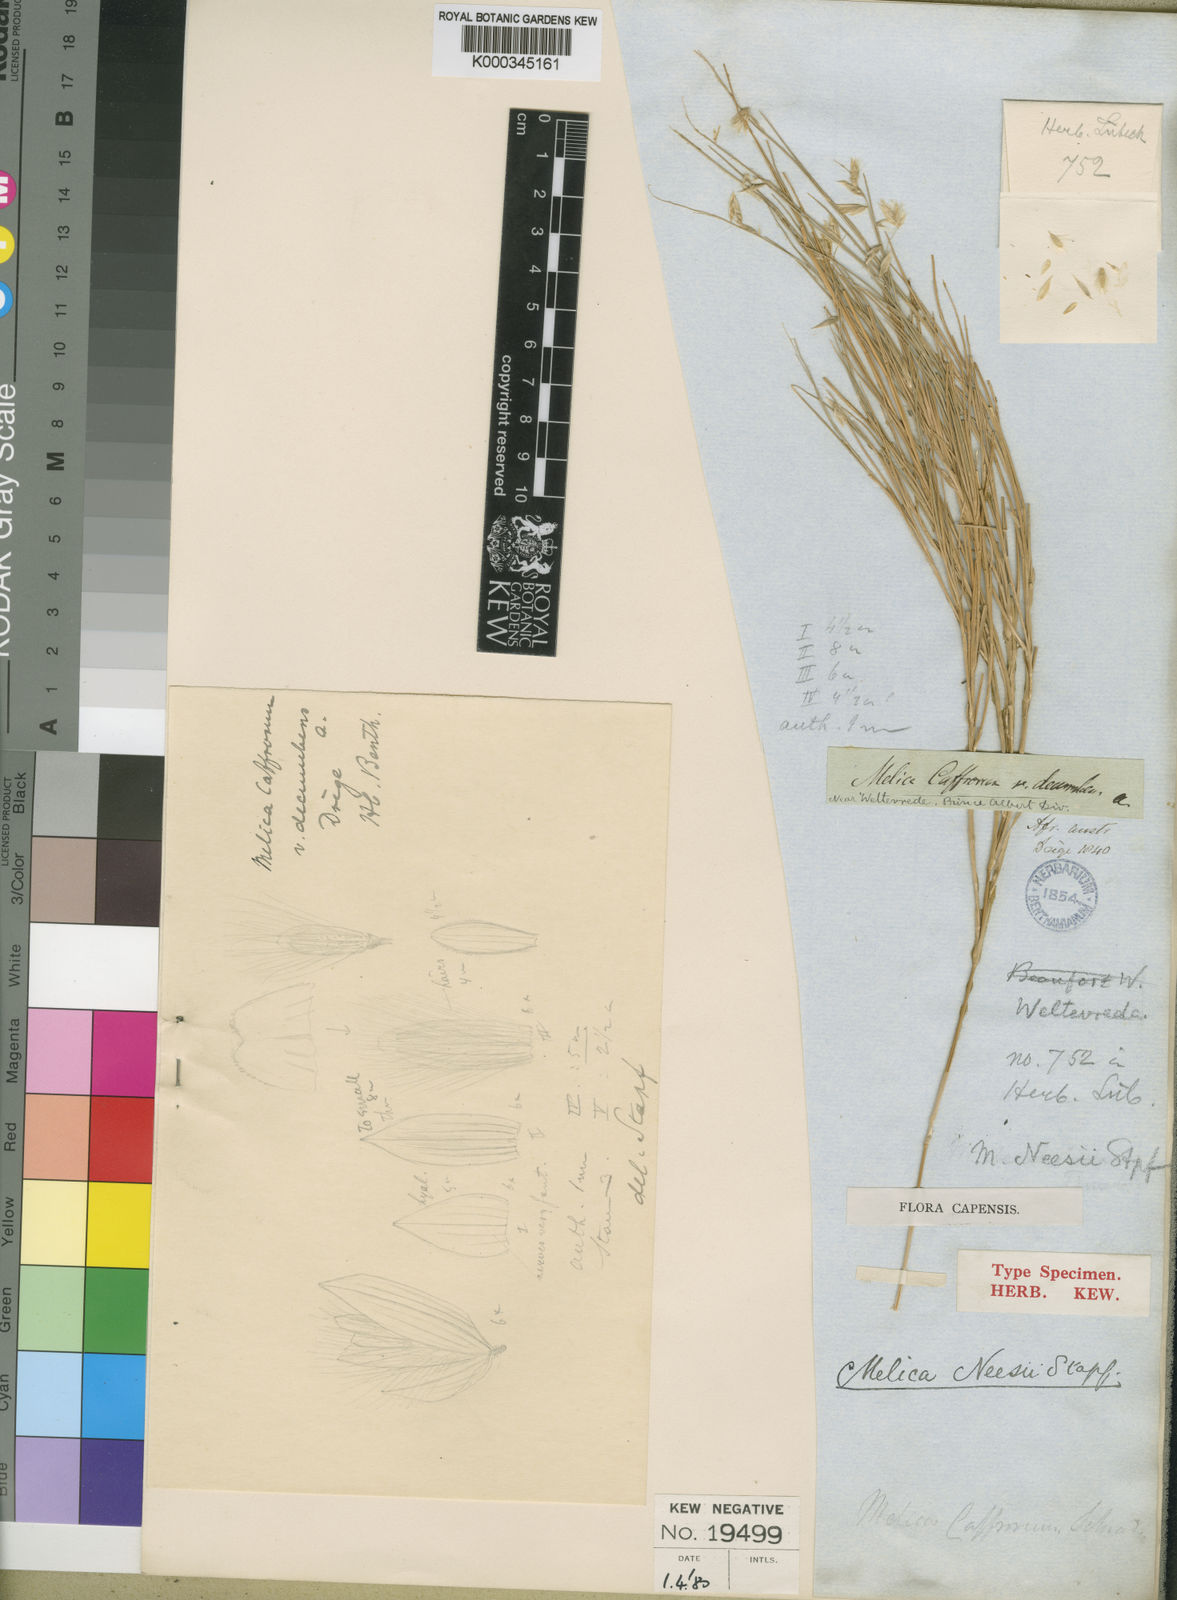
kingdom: Plantae
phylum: Tracheophyta
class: Liliopsida
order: Poales
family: Poaceae
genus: Melica
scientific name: Melica dendroides
